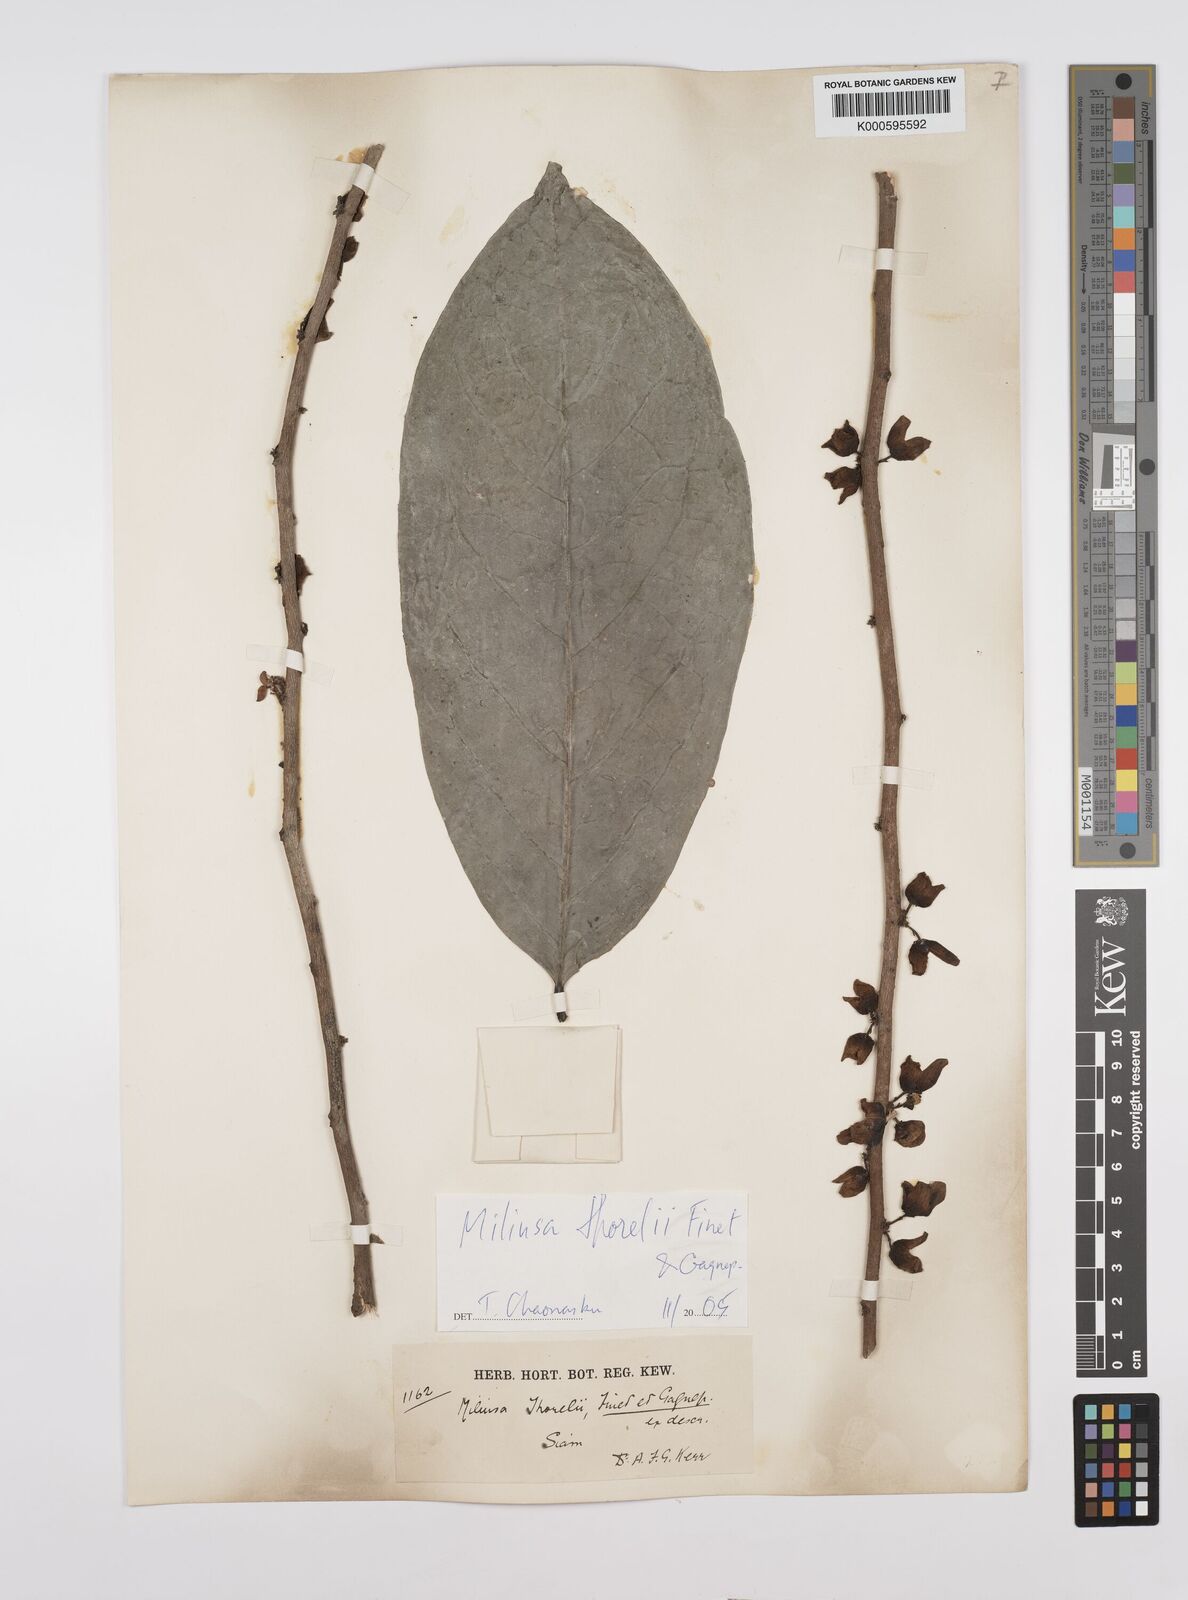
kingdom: Plantae
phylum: Tracheophyta
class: Magnoliopsida
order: Magnoliales
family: Annonaceae
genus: Miliusa
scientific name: Miliusa thorelii
